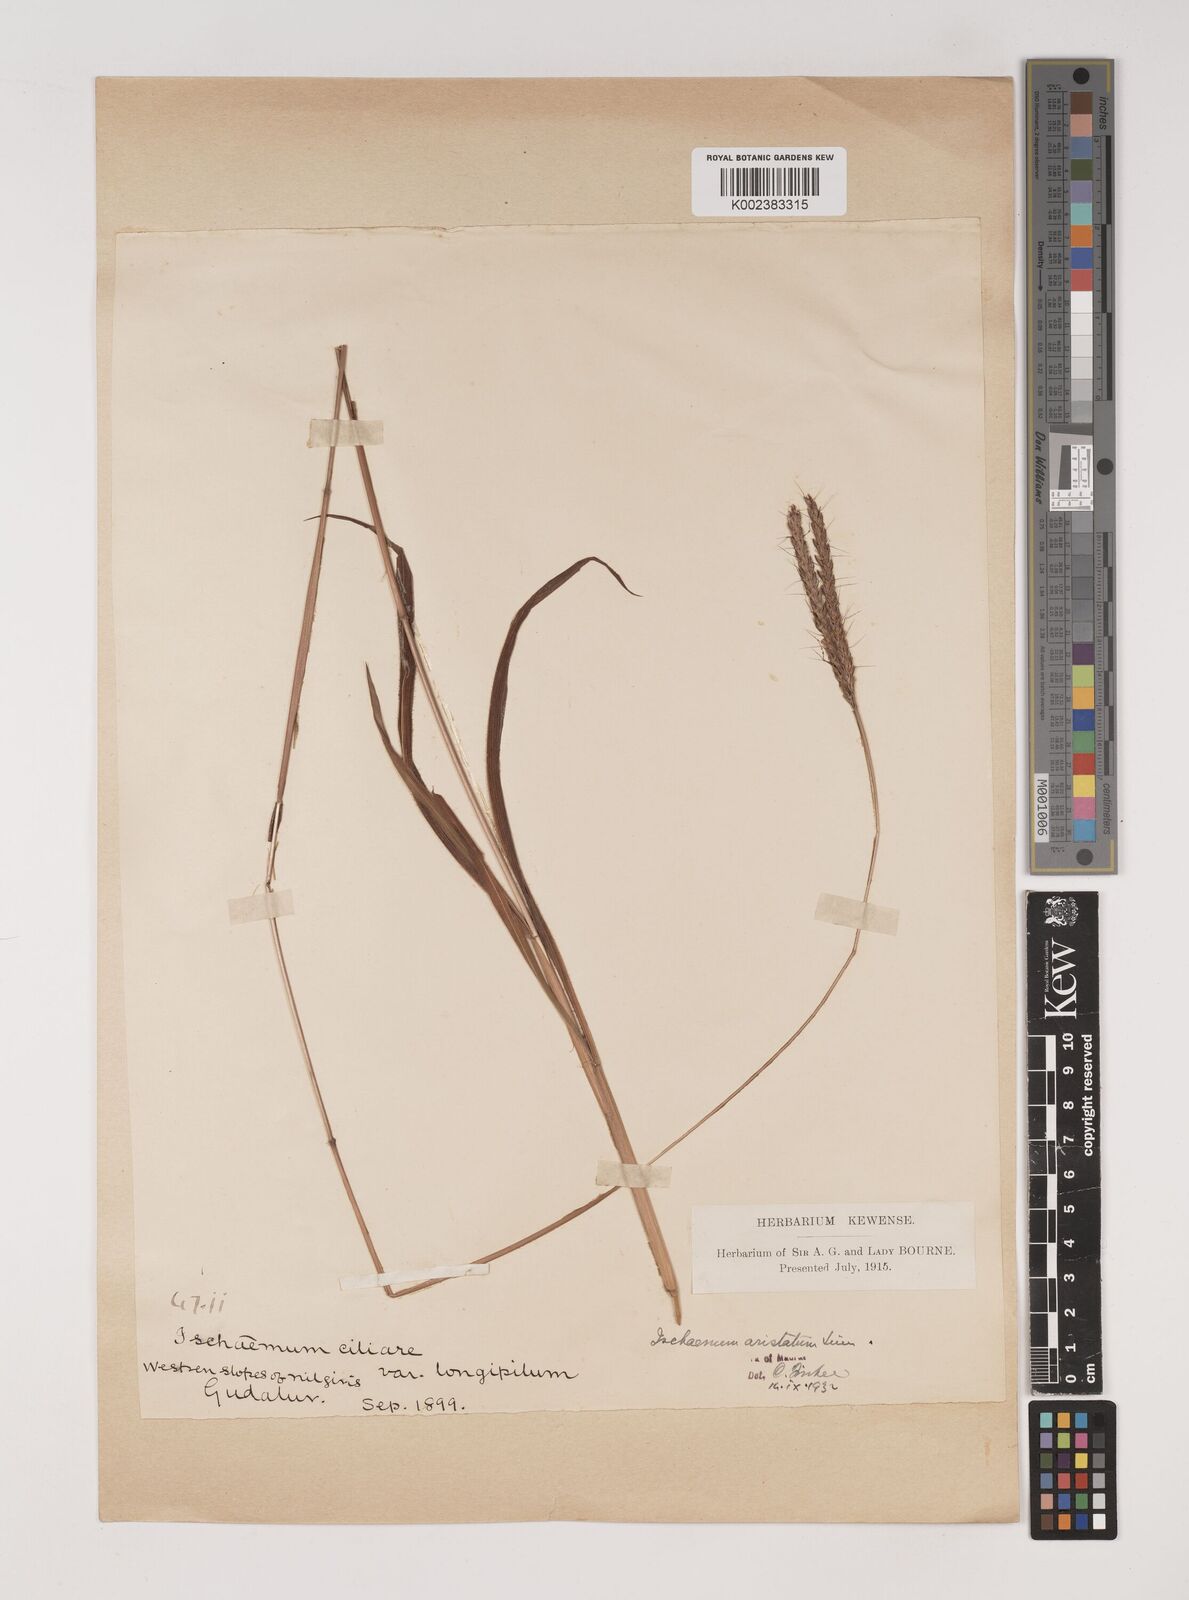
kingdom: Plantae
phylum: Tracheophyta
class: Liliopsida
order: Poales
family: Poaceae
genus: Polytrias
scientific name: Polytrias indica
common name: Indian murainagrass
